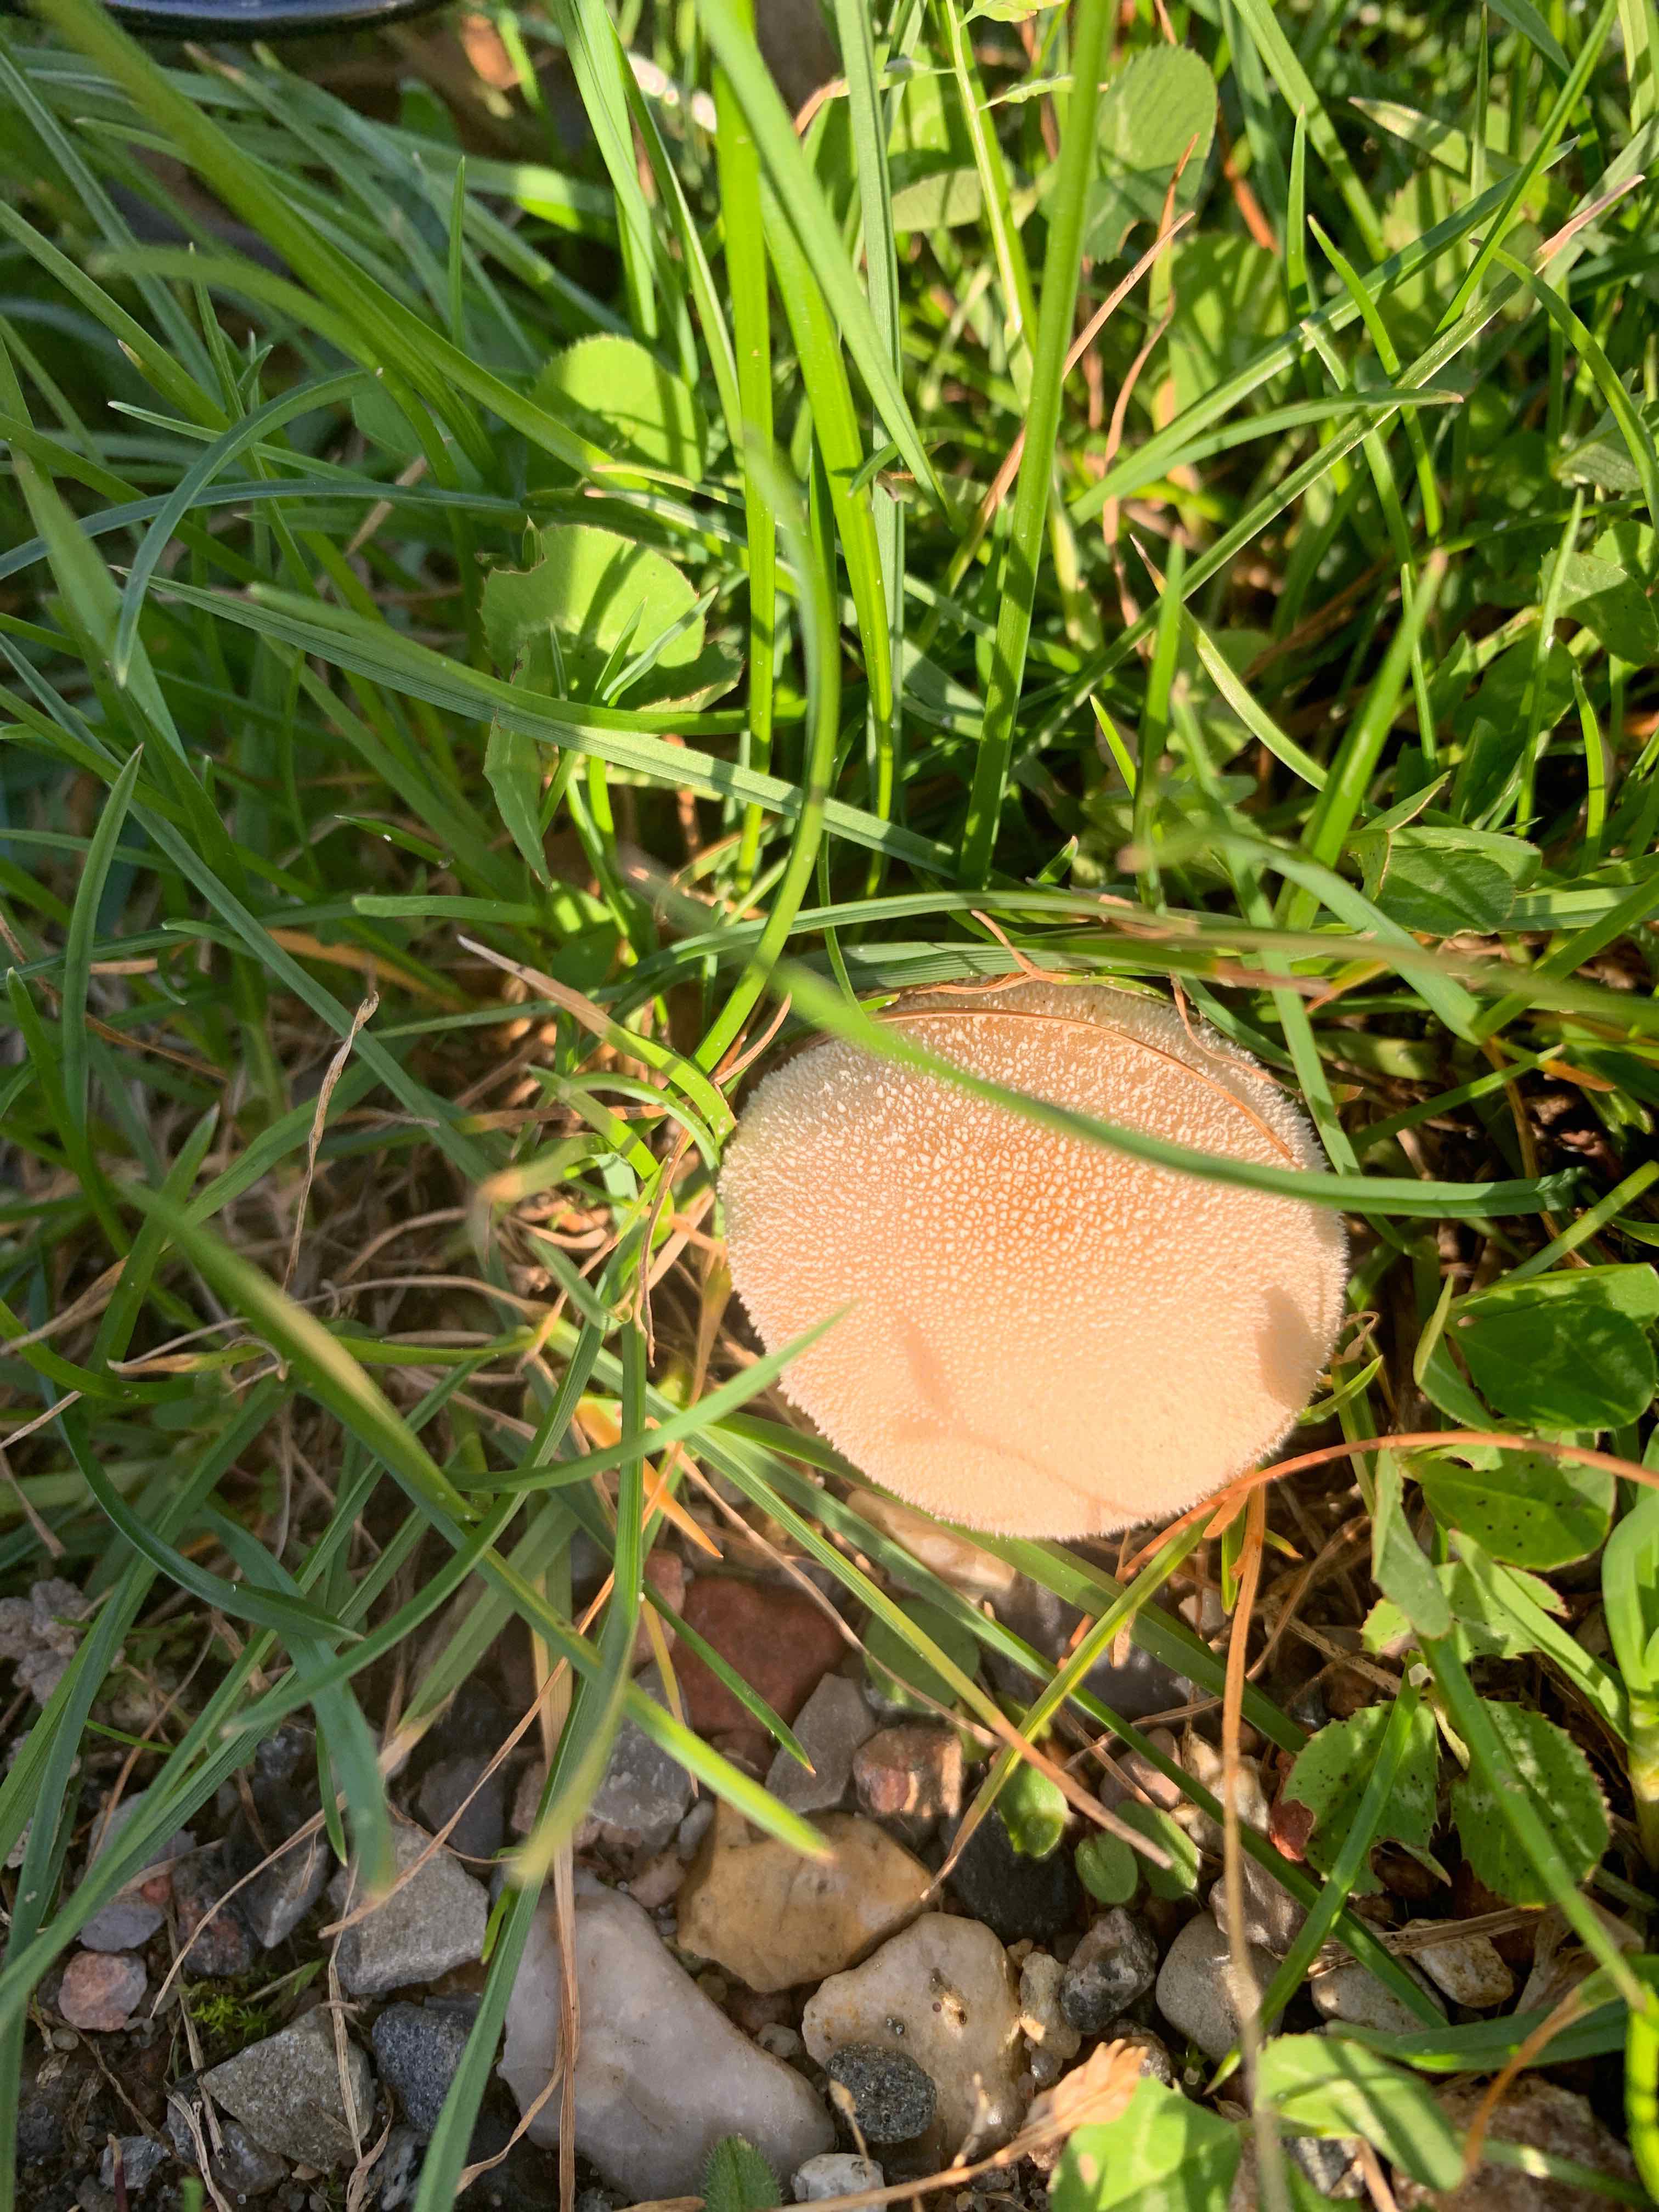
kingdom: Fungi
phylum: Basidiomycota
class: Agaricomycetes
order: Agaricales
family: Lycoperdaceae
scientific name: Lycoperdaceae
